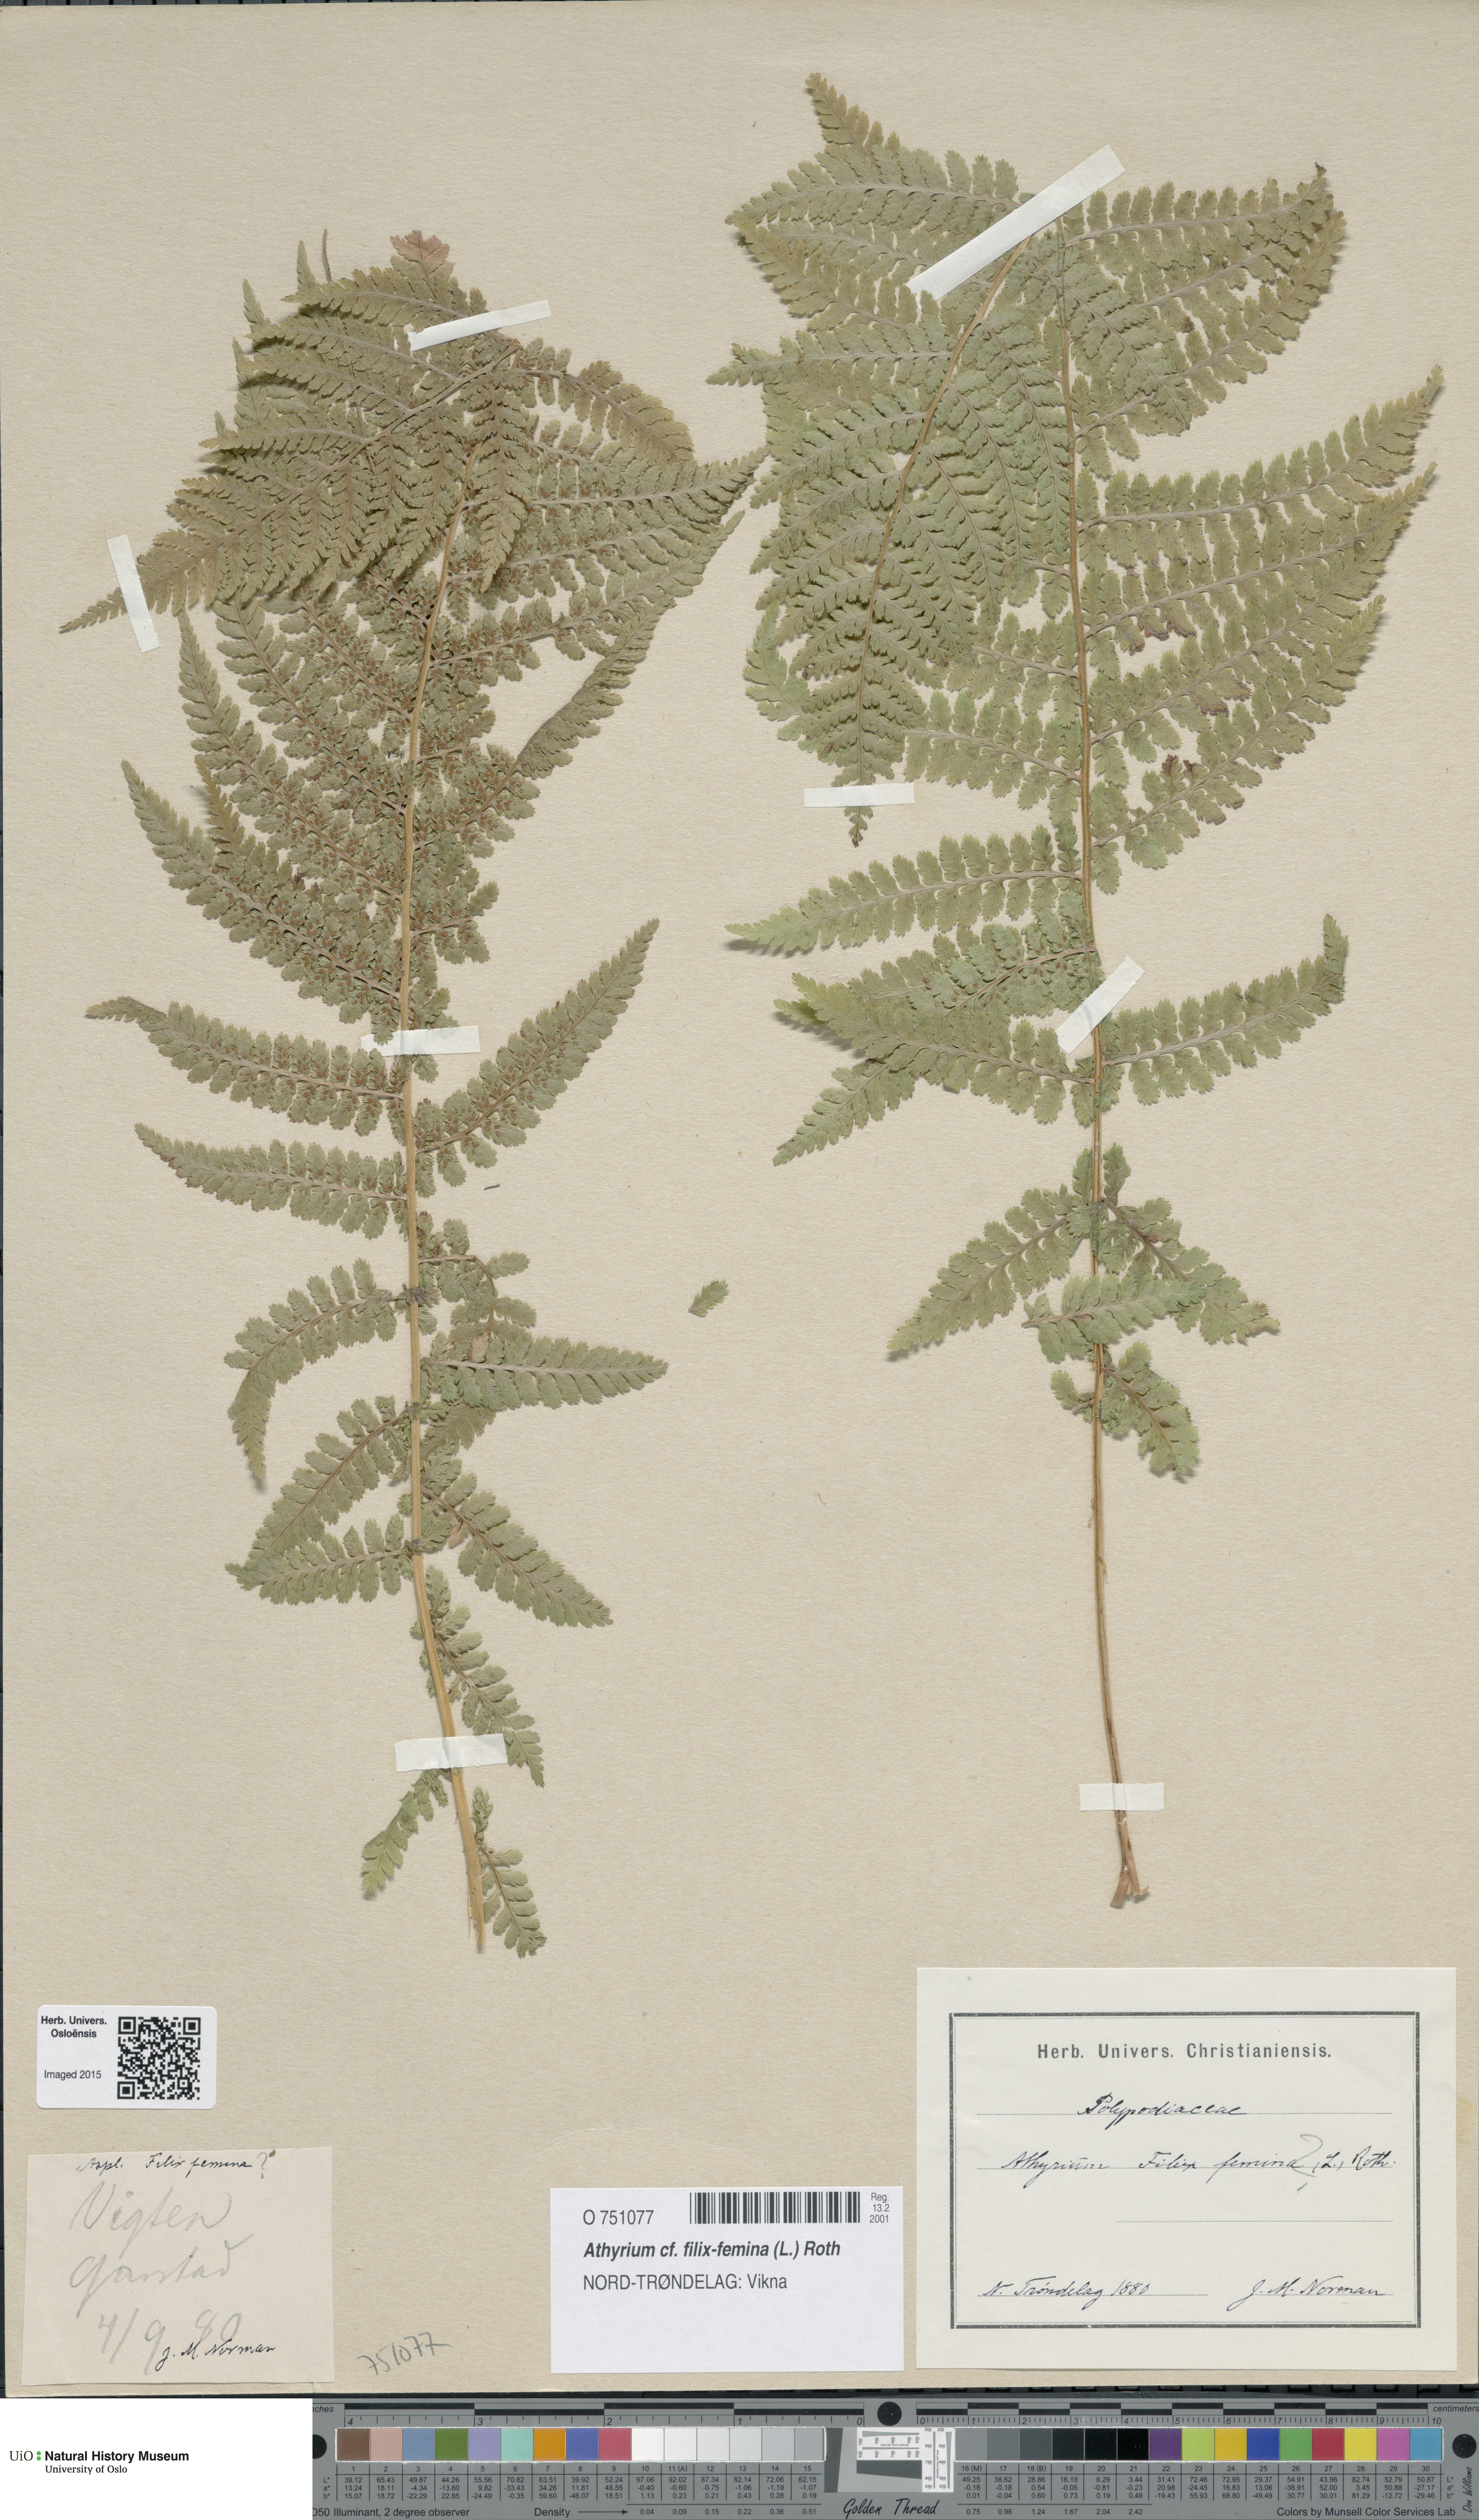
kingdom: Plantae
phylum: Tracheophyta
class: Polypodiopsida
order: Polypodiales
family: Athyriaceae
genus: Athyrium
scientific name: Athyrium filix-femina
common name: Lady fern
